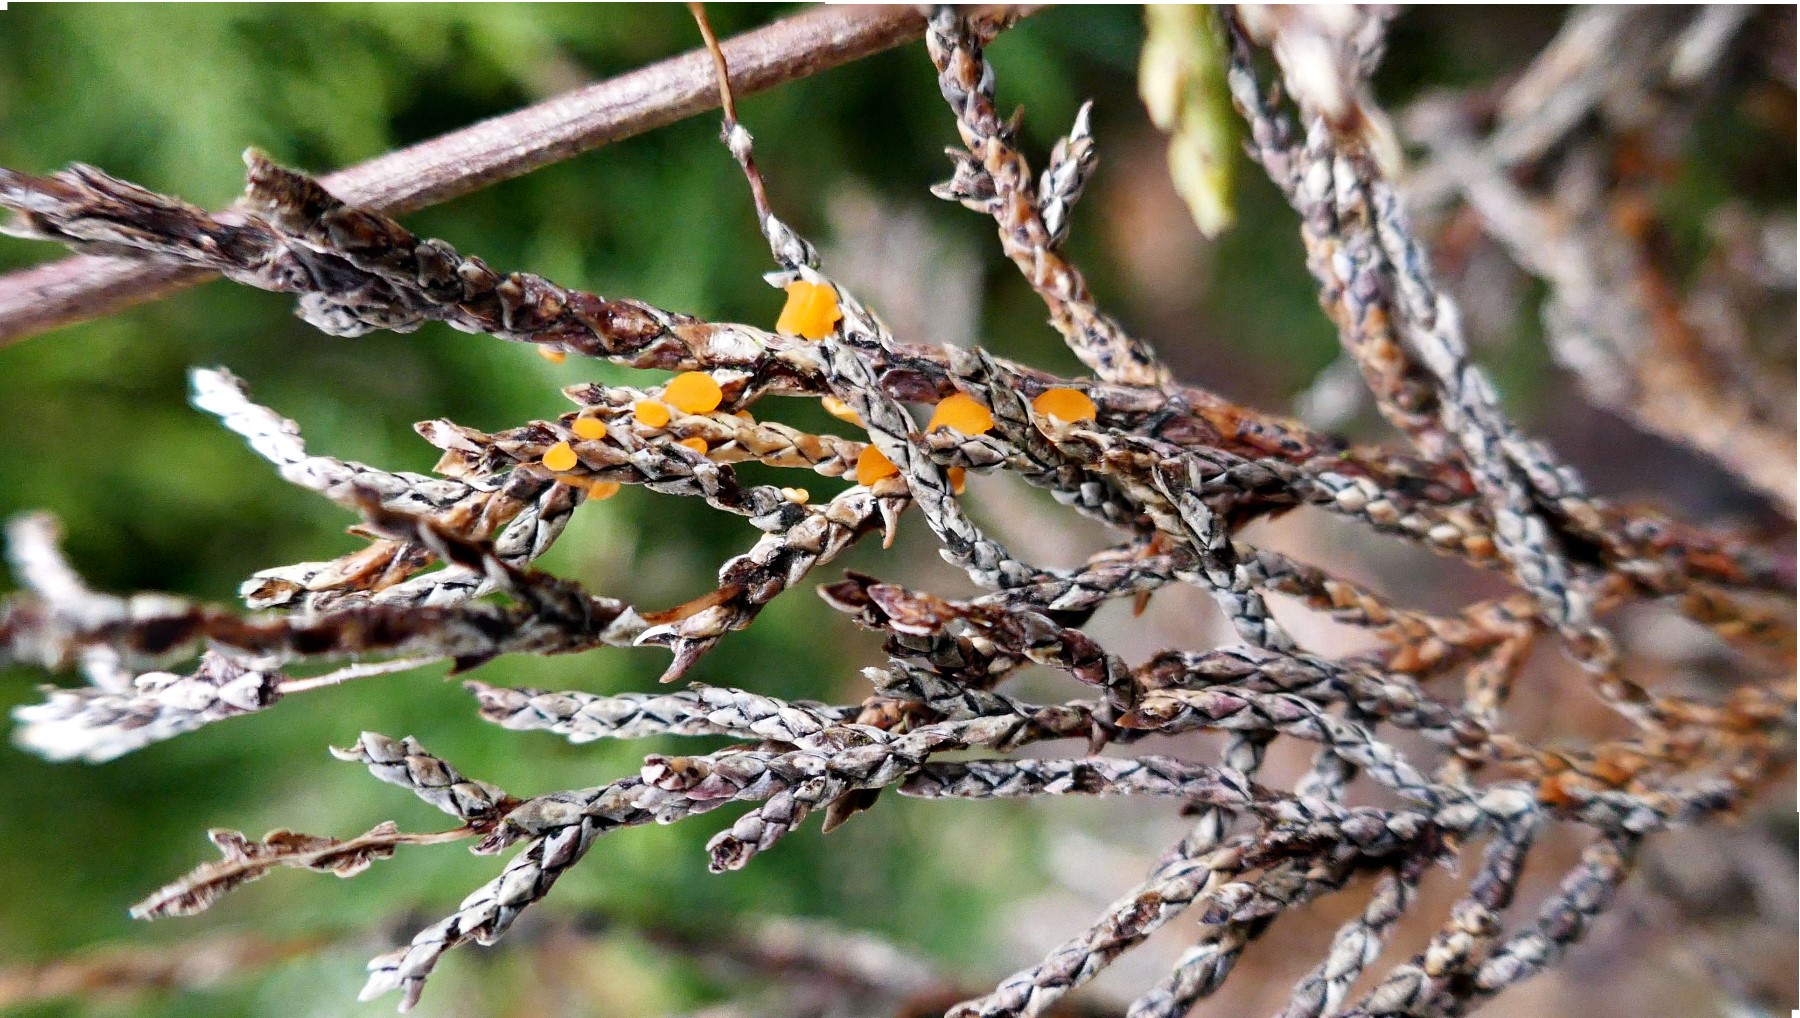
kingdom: Fungi
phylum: Ascomycota
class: Pezizomycetes
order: Pezizales
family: Sarcoscyphaceae
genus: Pithya
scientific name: Pithya cupressina
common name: lille dukatbæger
